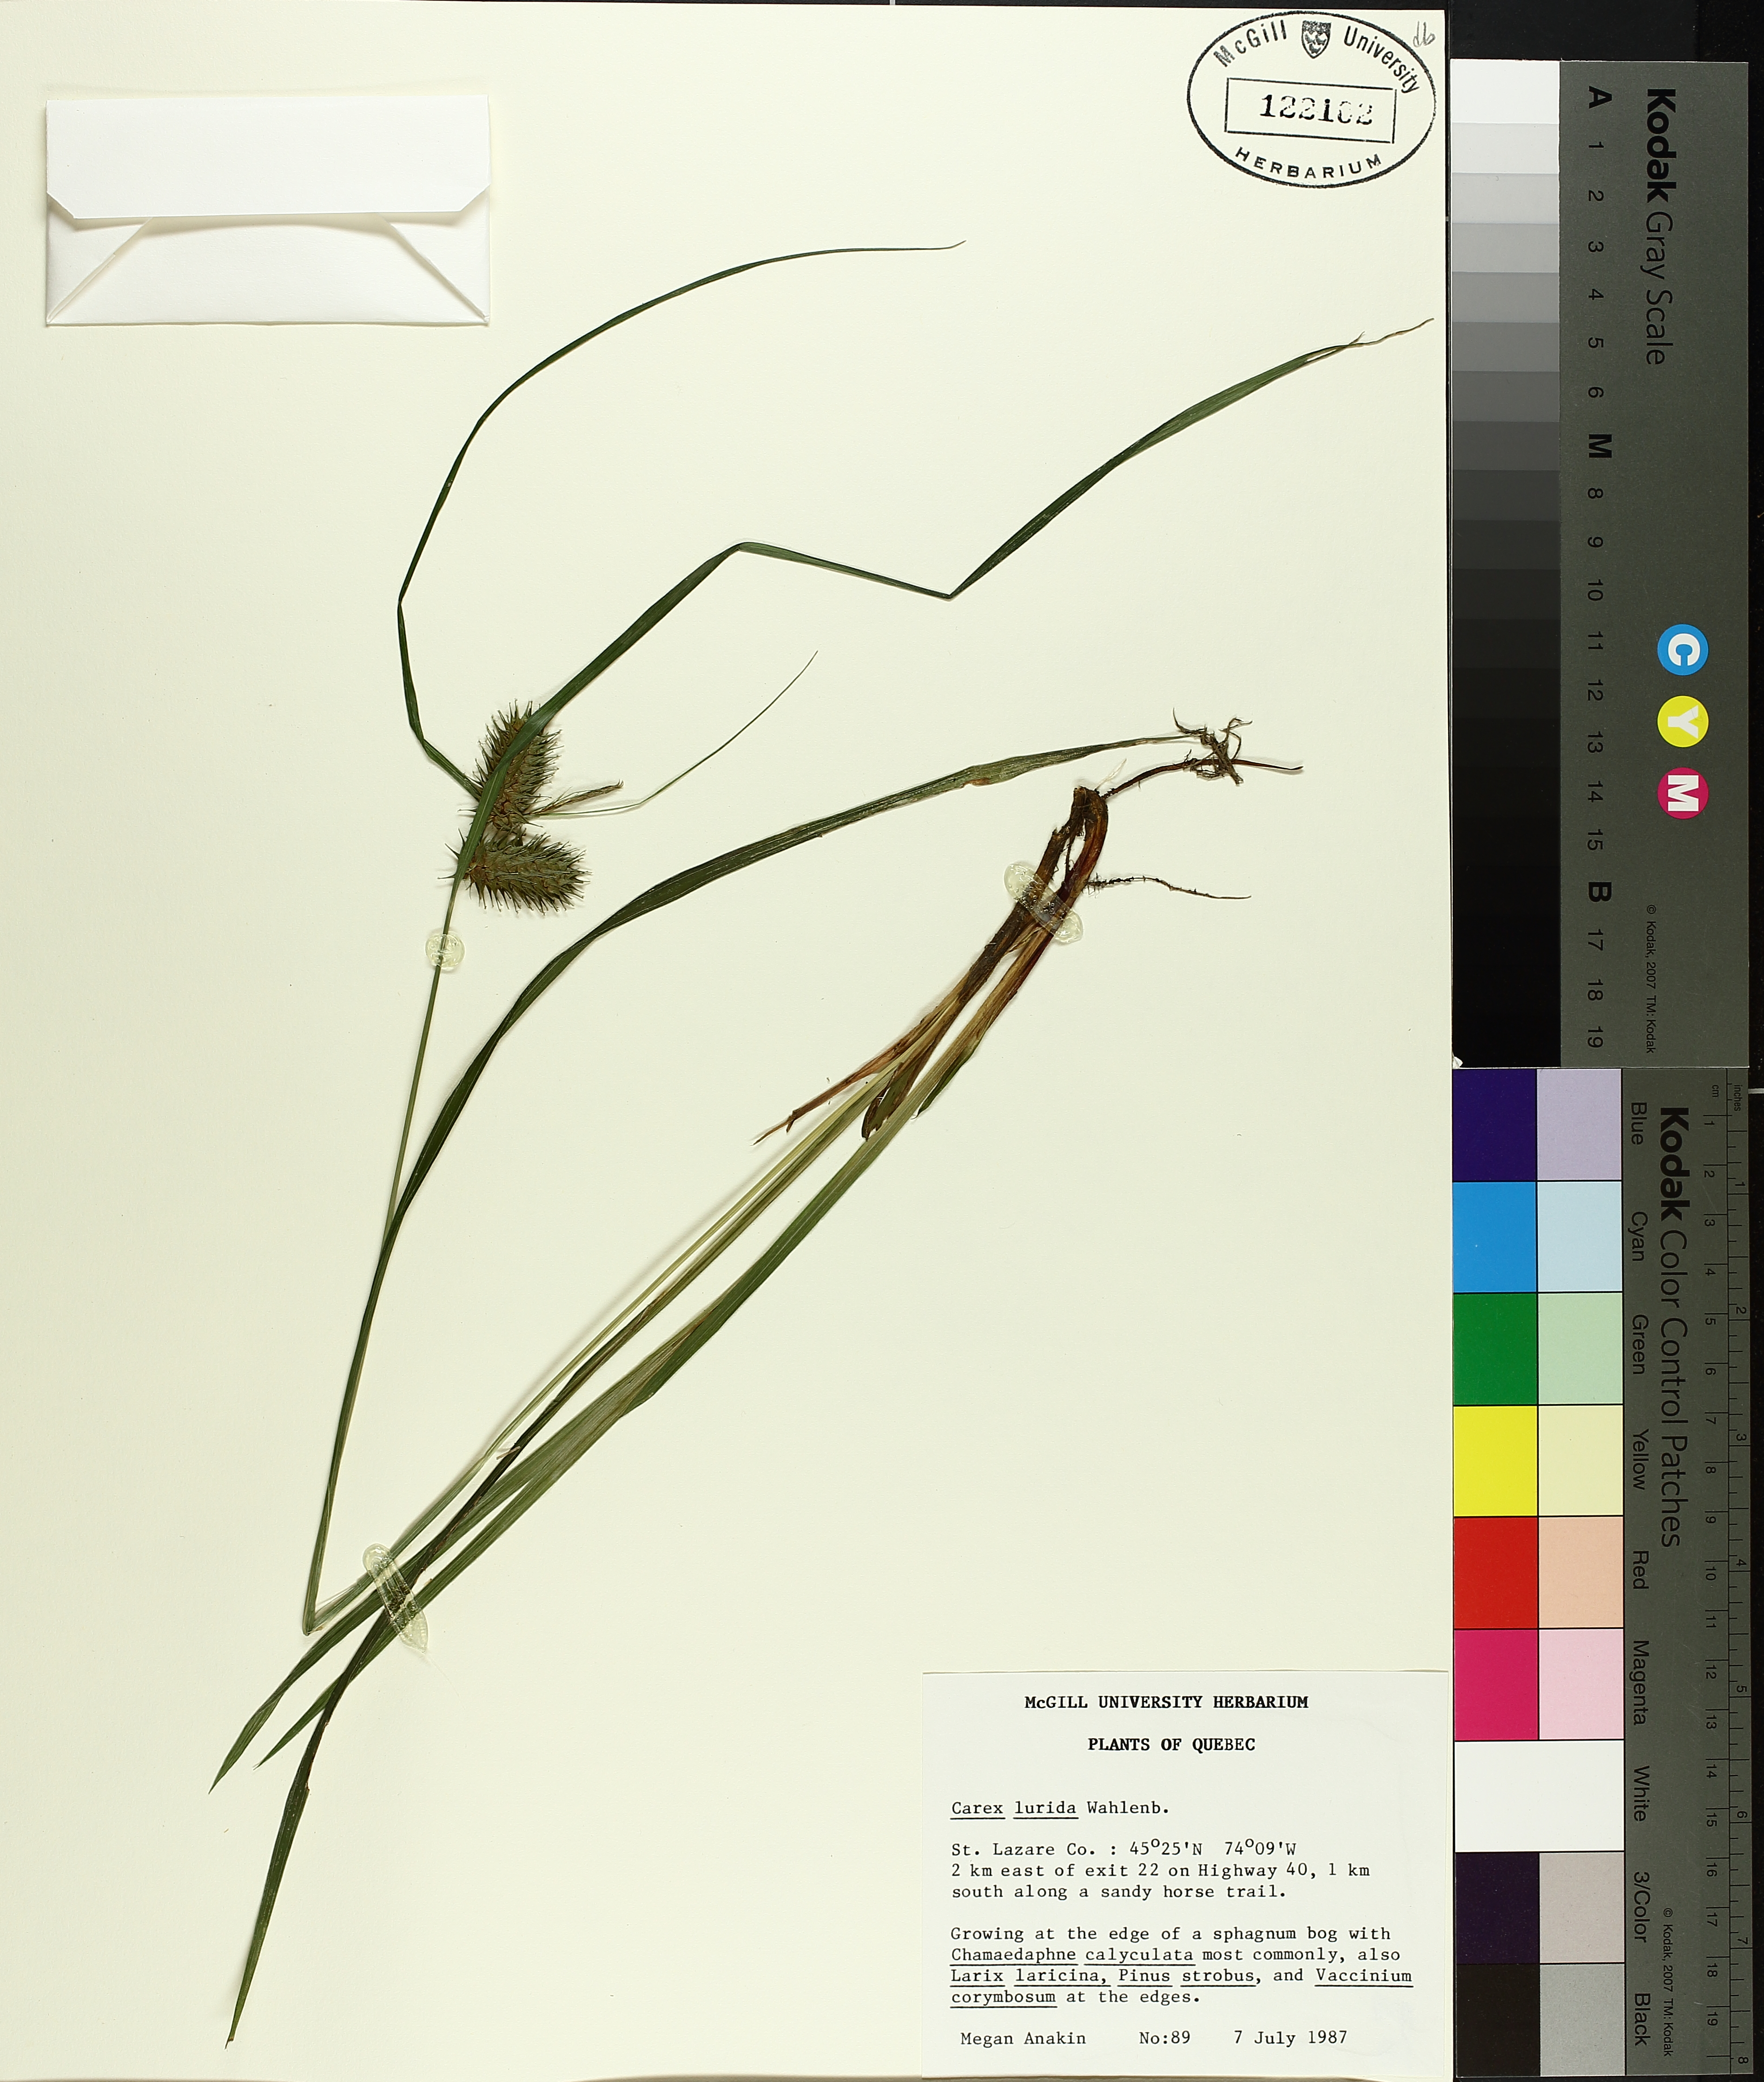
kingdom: Plantae
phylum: Tracheophyta
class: Liliopsida
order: Poales
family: Cyperaceae
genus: Carex
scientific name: Carex lurida
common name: Sallow sedge
